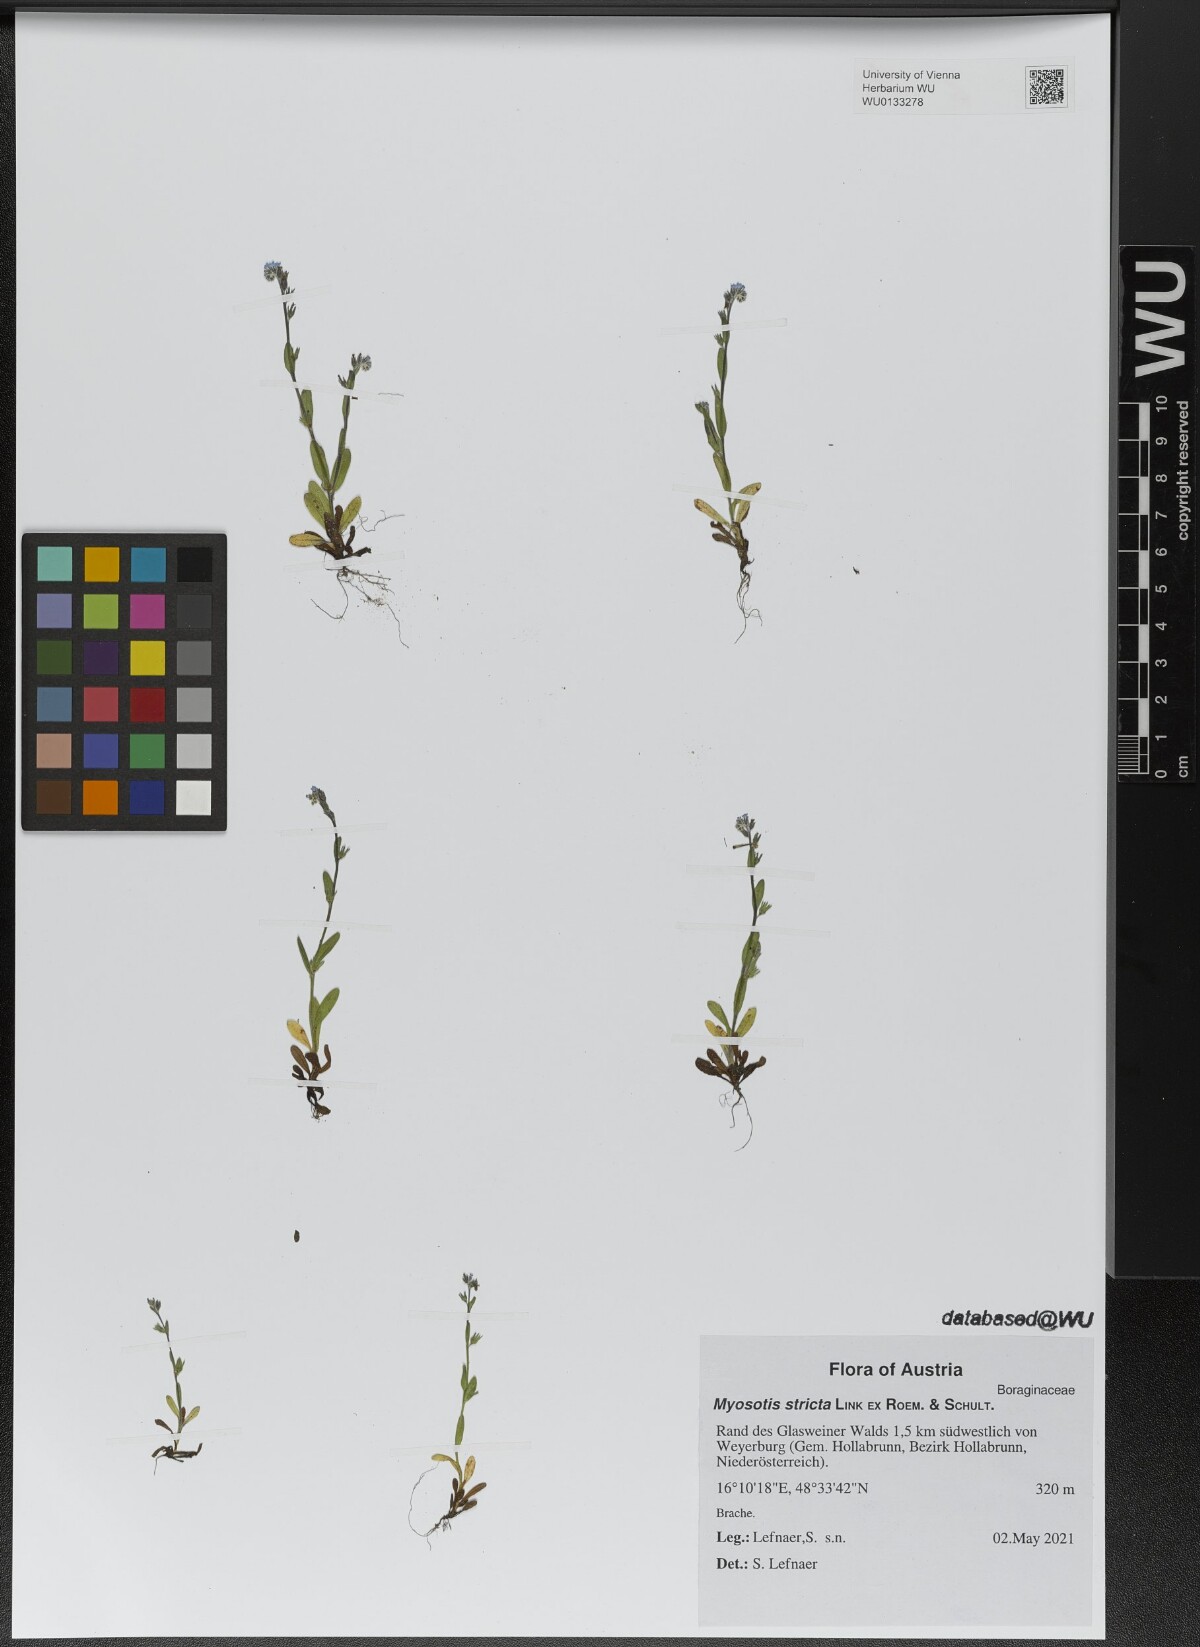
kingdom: Plantae
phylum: Tracheophyta
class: Magnoliopsida
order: Boraginales
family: Boraginaceae
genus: Myosotis
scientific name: Myosotis stricta
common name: Strict forget-me-not
